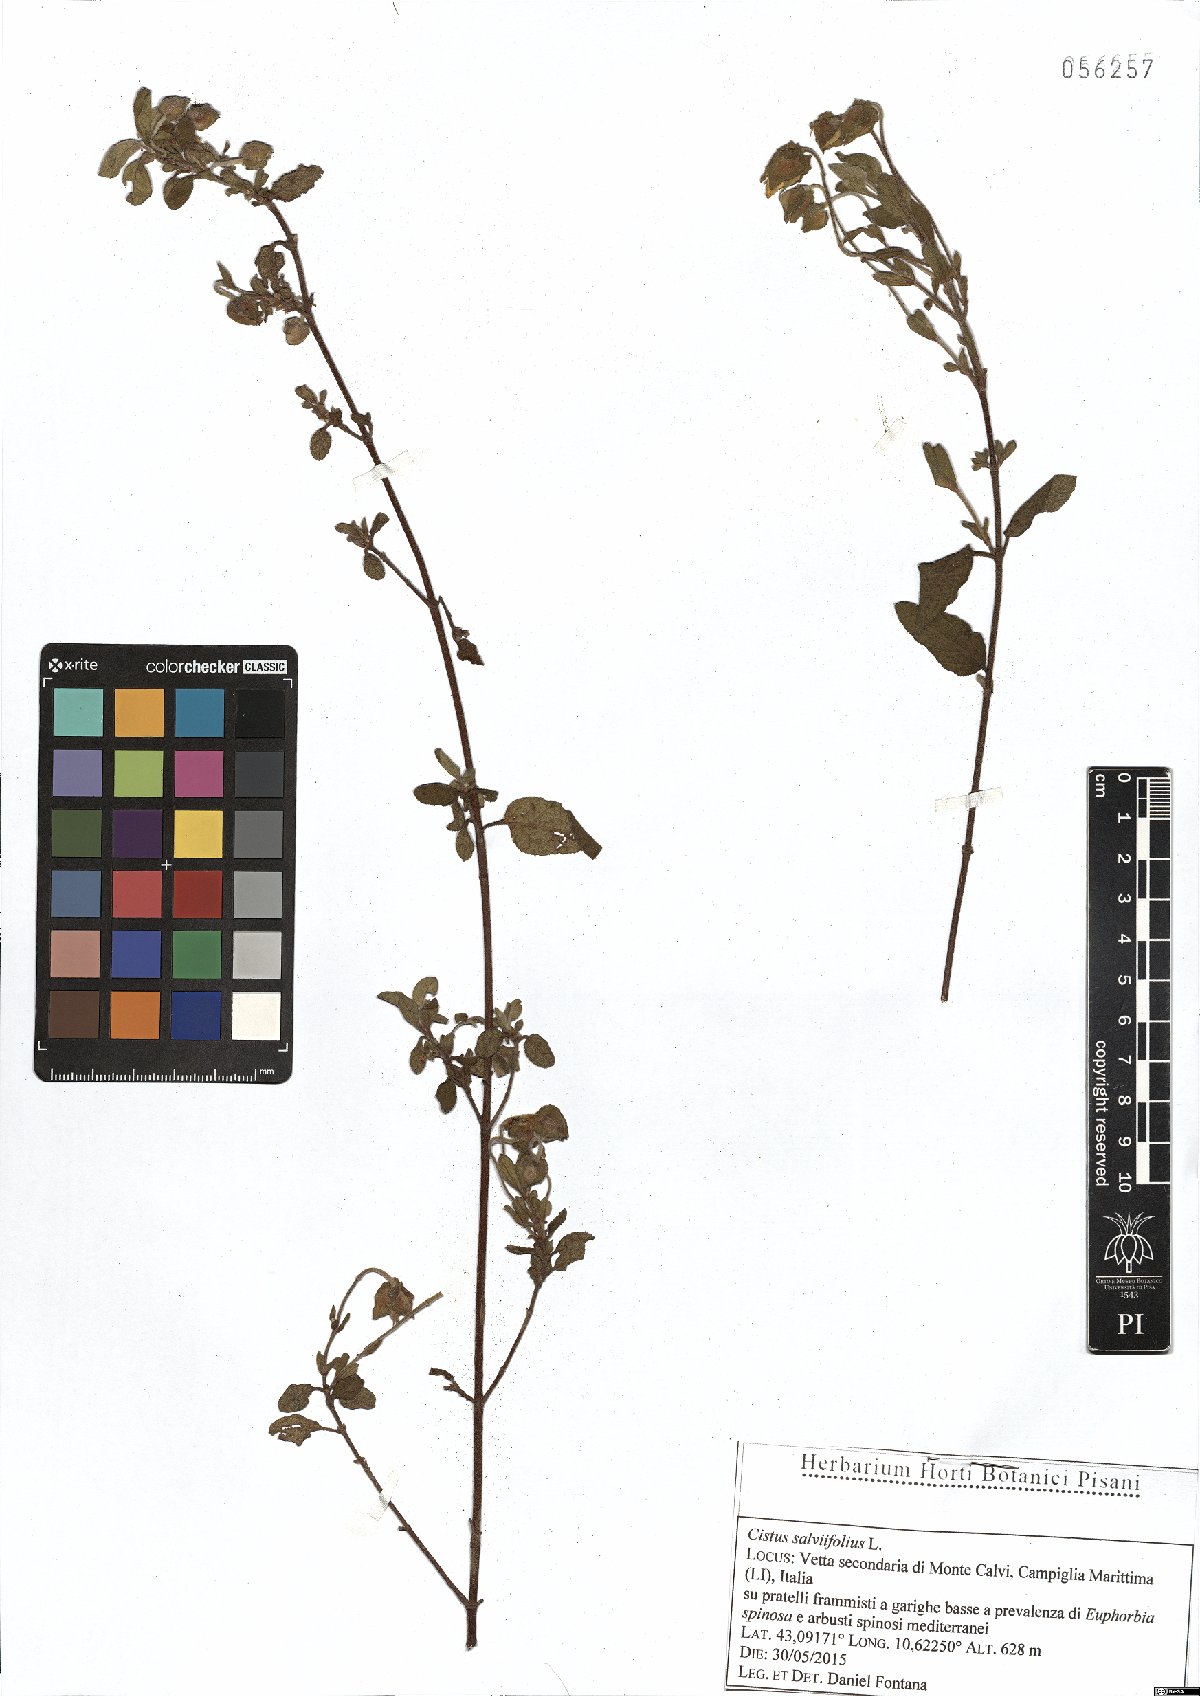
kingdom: Plantae
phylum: Tracheophyta
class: Magnoliopsida
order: Malvales
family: Cistaceae
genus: Cistus
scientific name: Cistus salviifolius
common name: Salvia cistus
